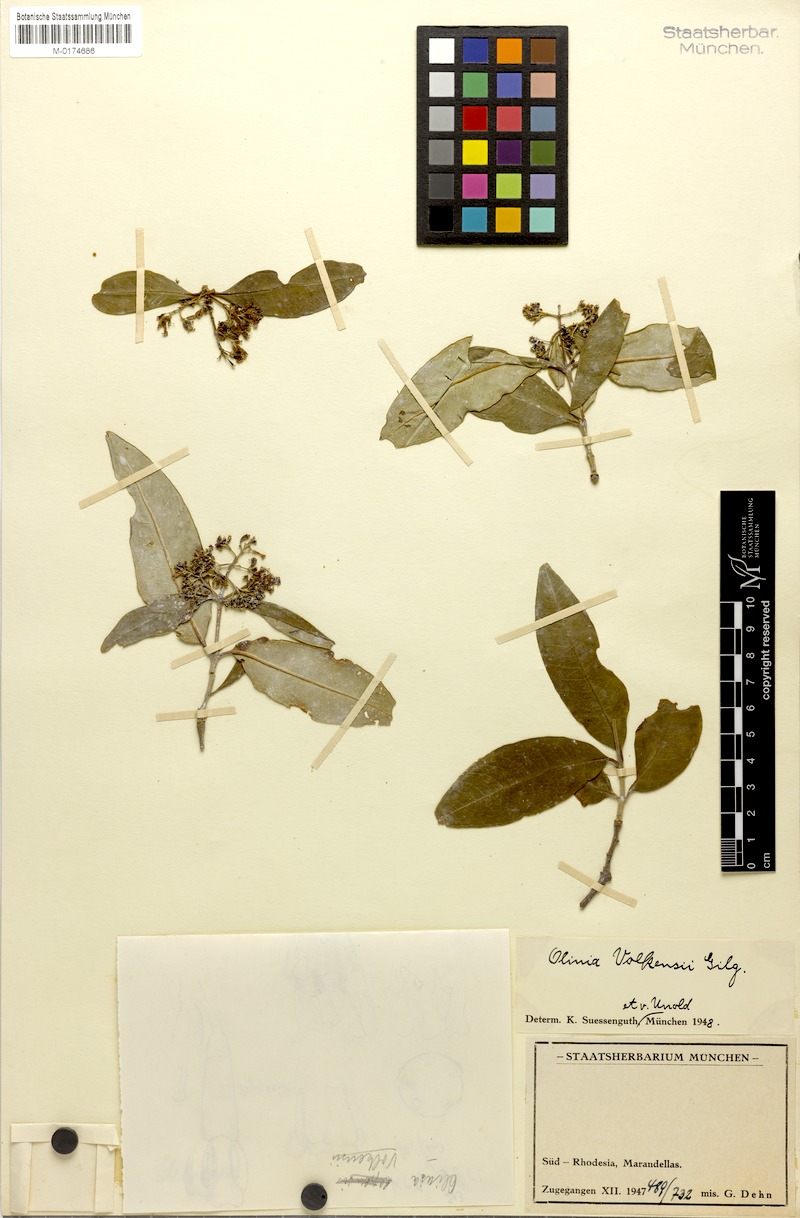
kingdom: Plantae
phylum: Tracheophyta
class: Magnoliopsida
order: Myrtales
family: Penaeaceae
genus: Olinia
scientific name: Olinia rochetiana
